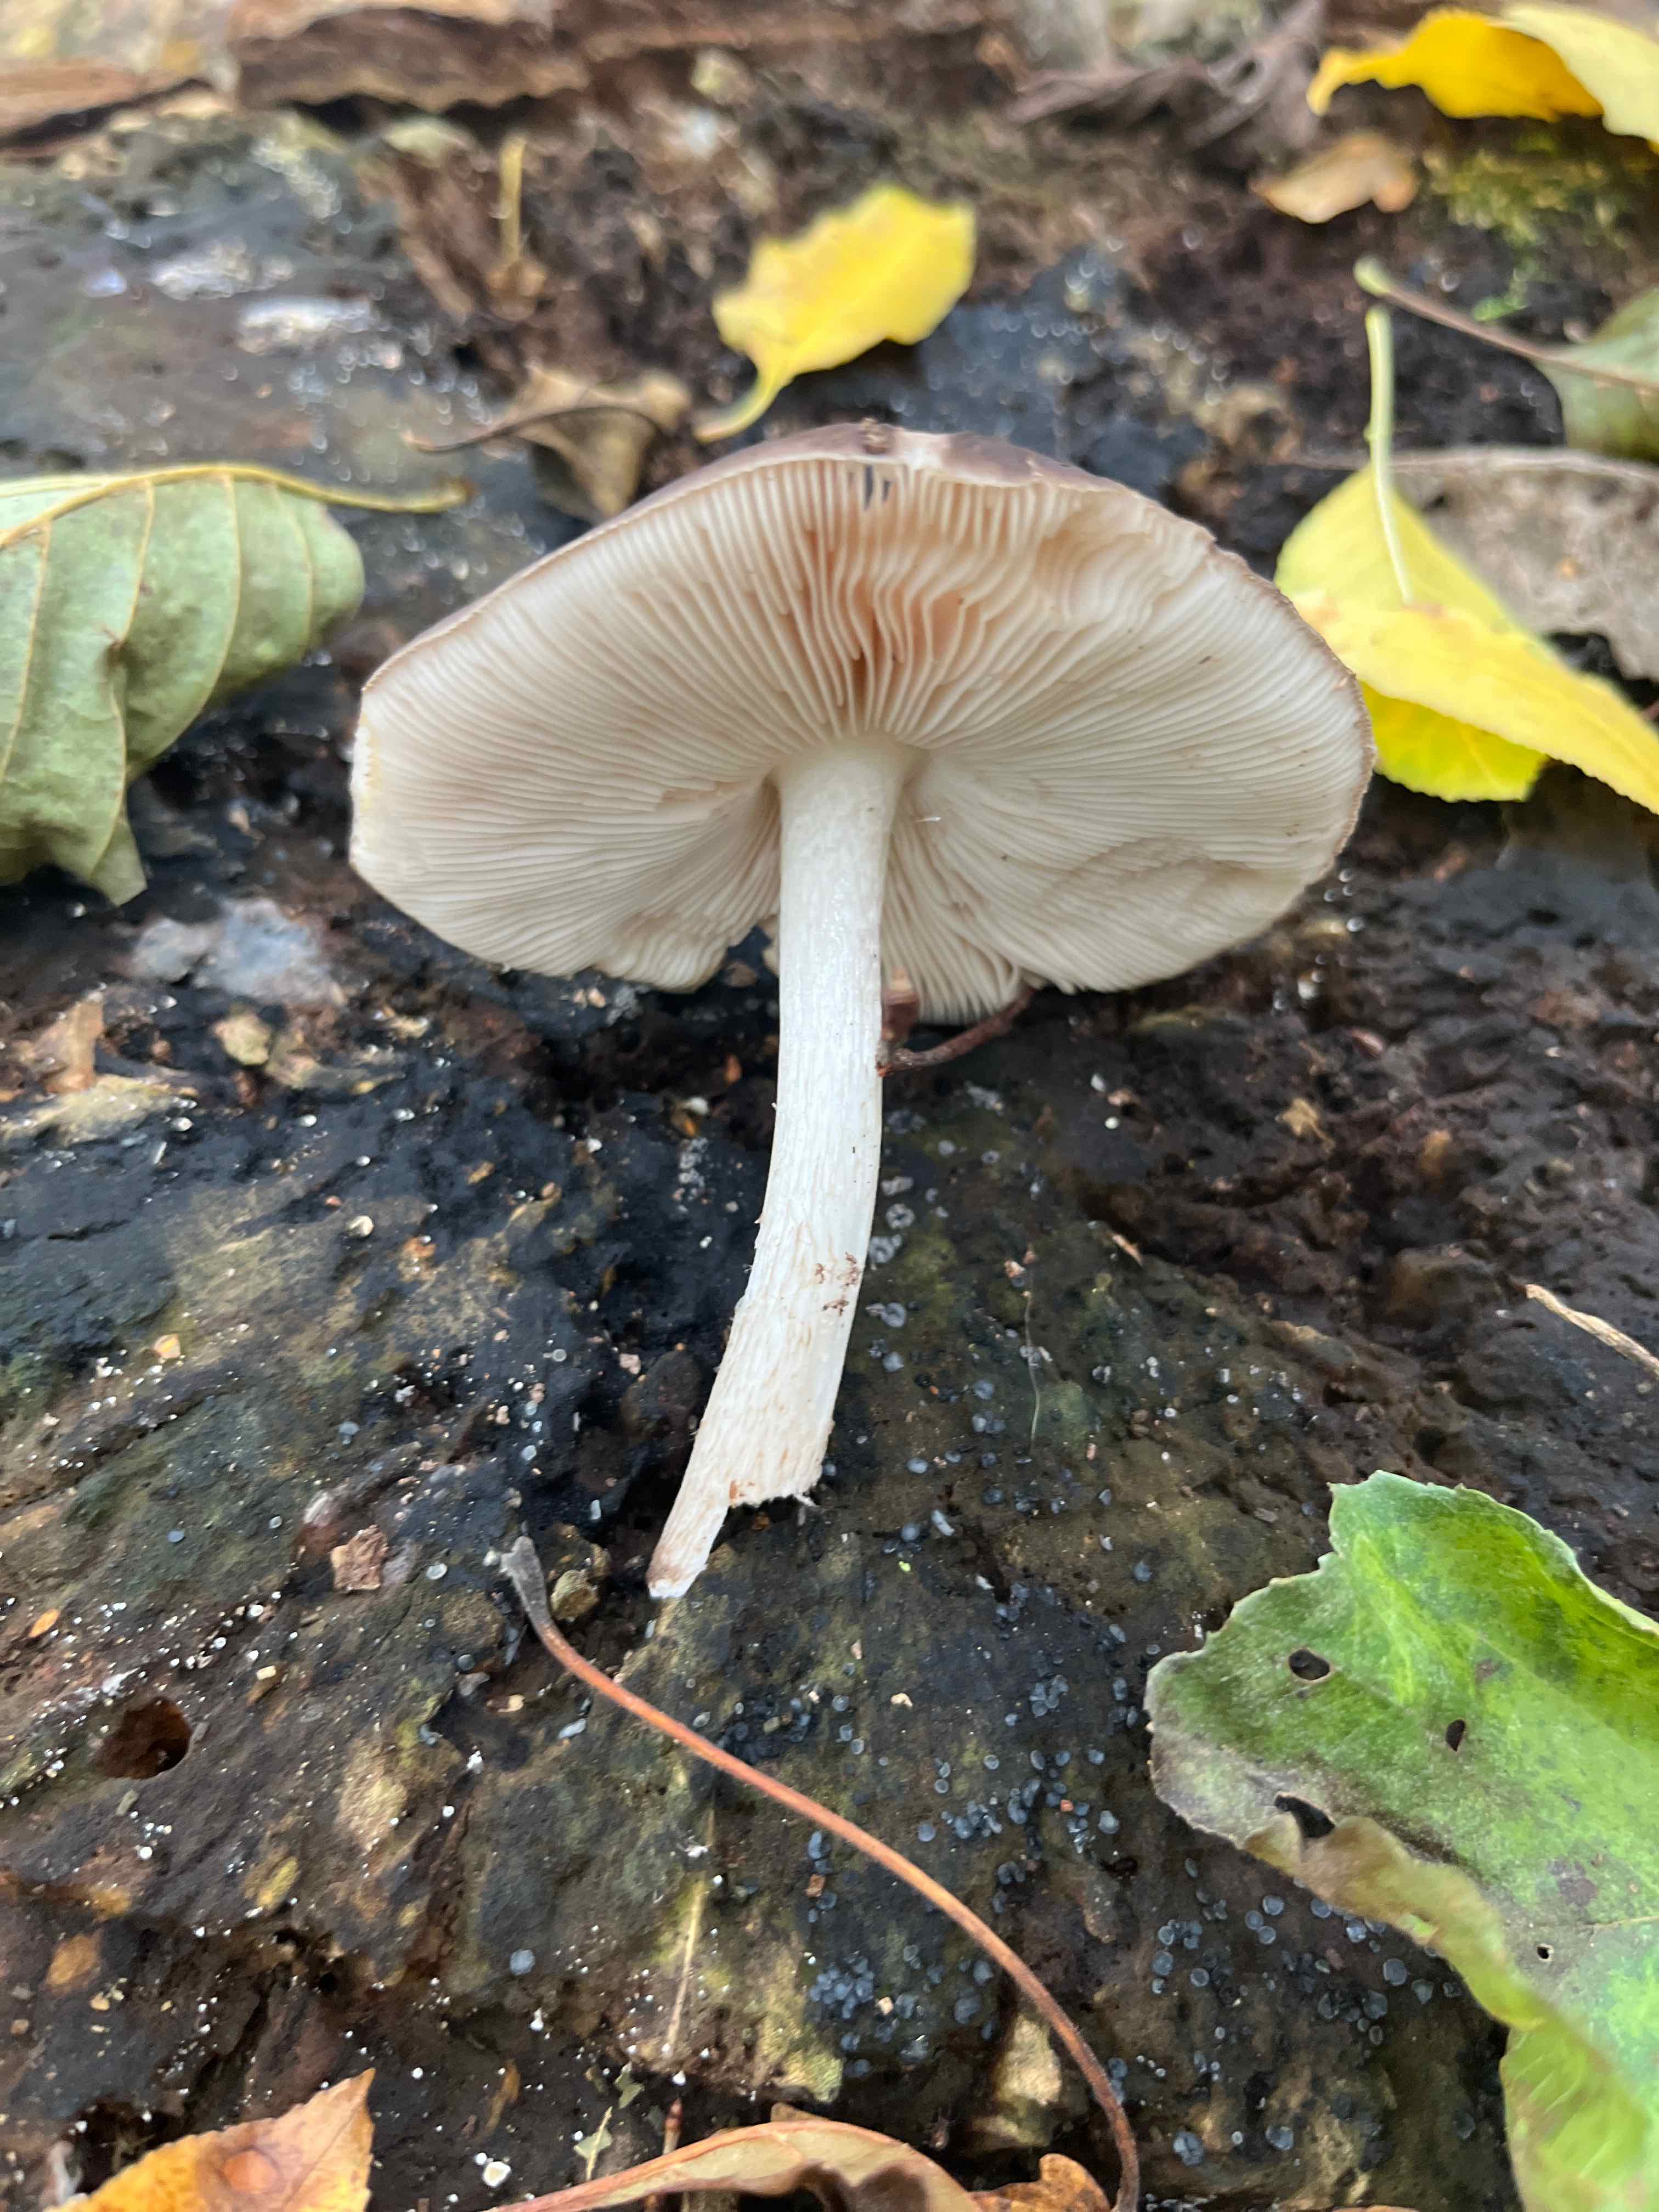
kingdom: Fungi
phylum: Basidiomycota
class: Agaricomycetes
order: Agaricales
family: Pluteaceae
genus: Pluteus
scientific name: Pluteus cervinus
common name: sodfarvet skærmhat
